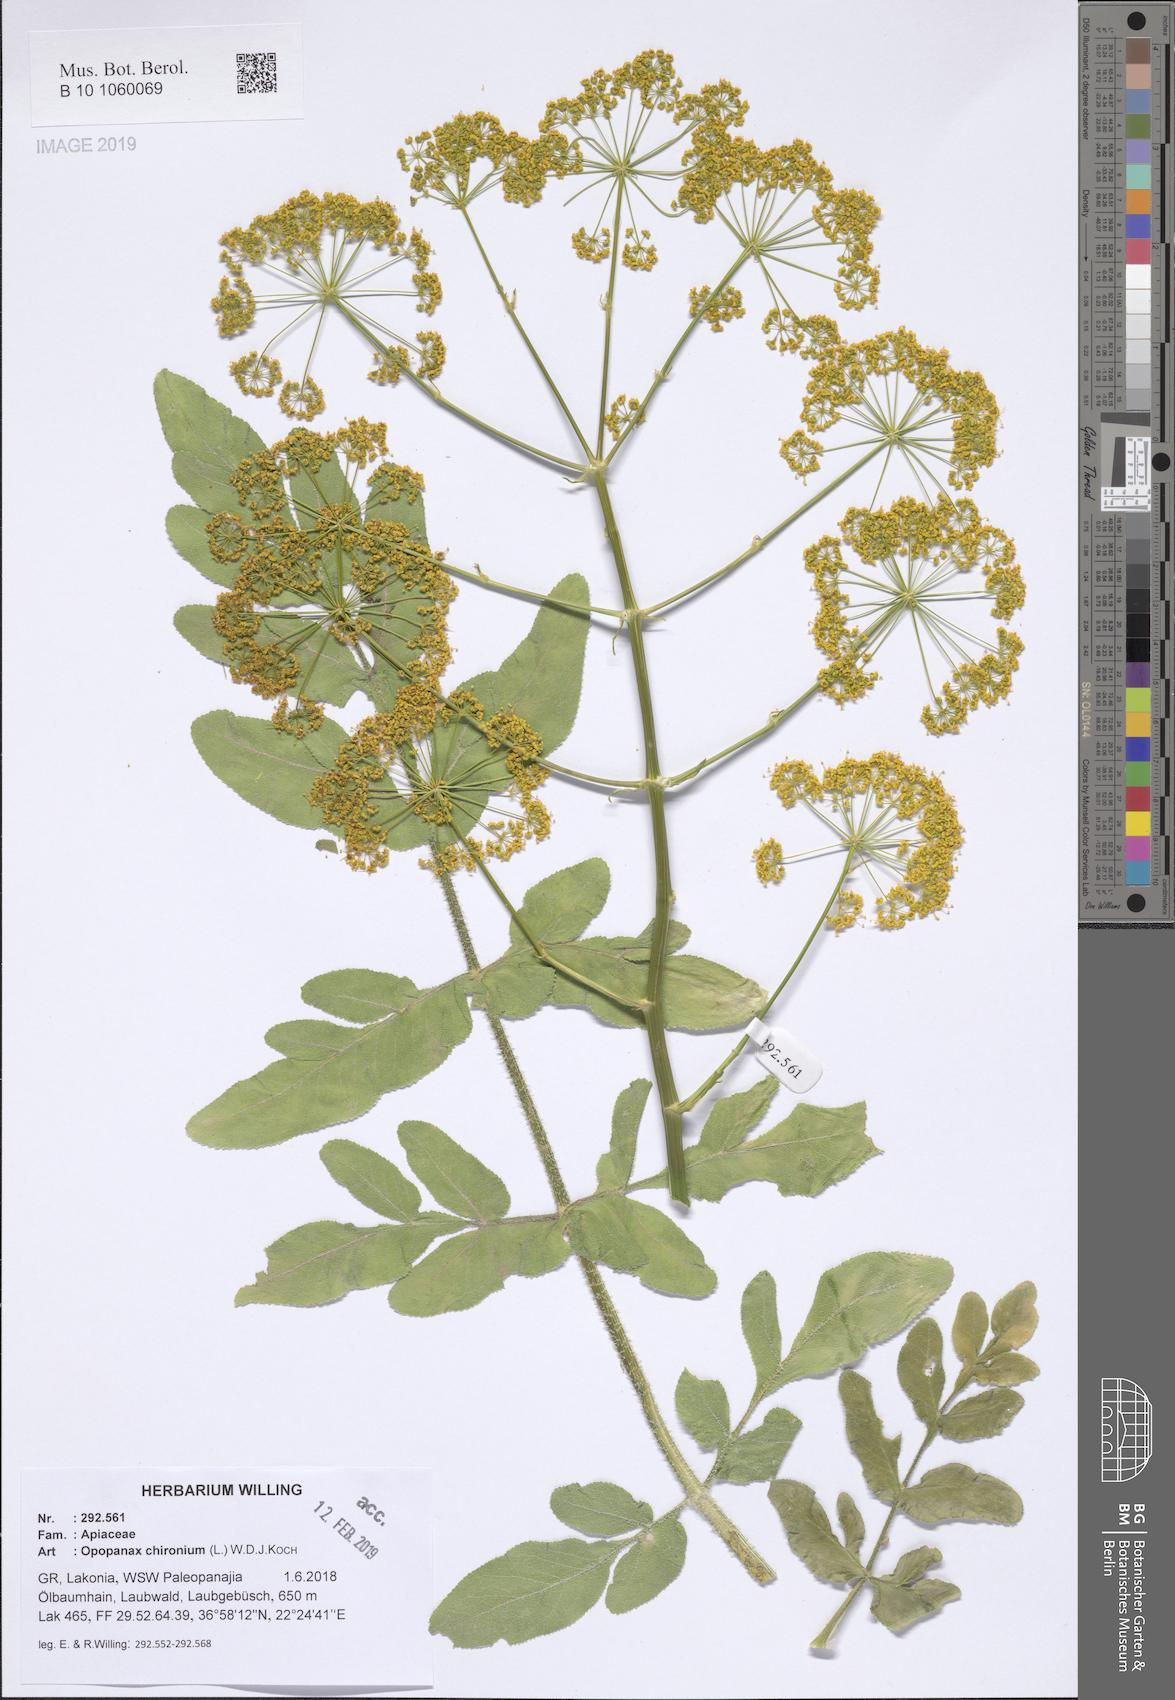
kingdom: Plantae
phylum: Tracheophyta
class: Magnoliopsida
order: Apiales
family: Apiaceae
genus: Opopanax
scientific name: Opopanax chironium
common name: Hercules-all-heal
